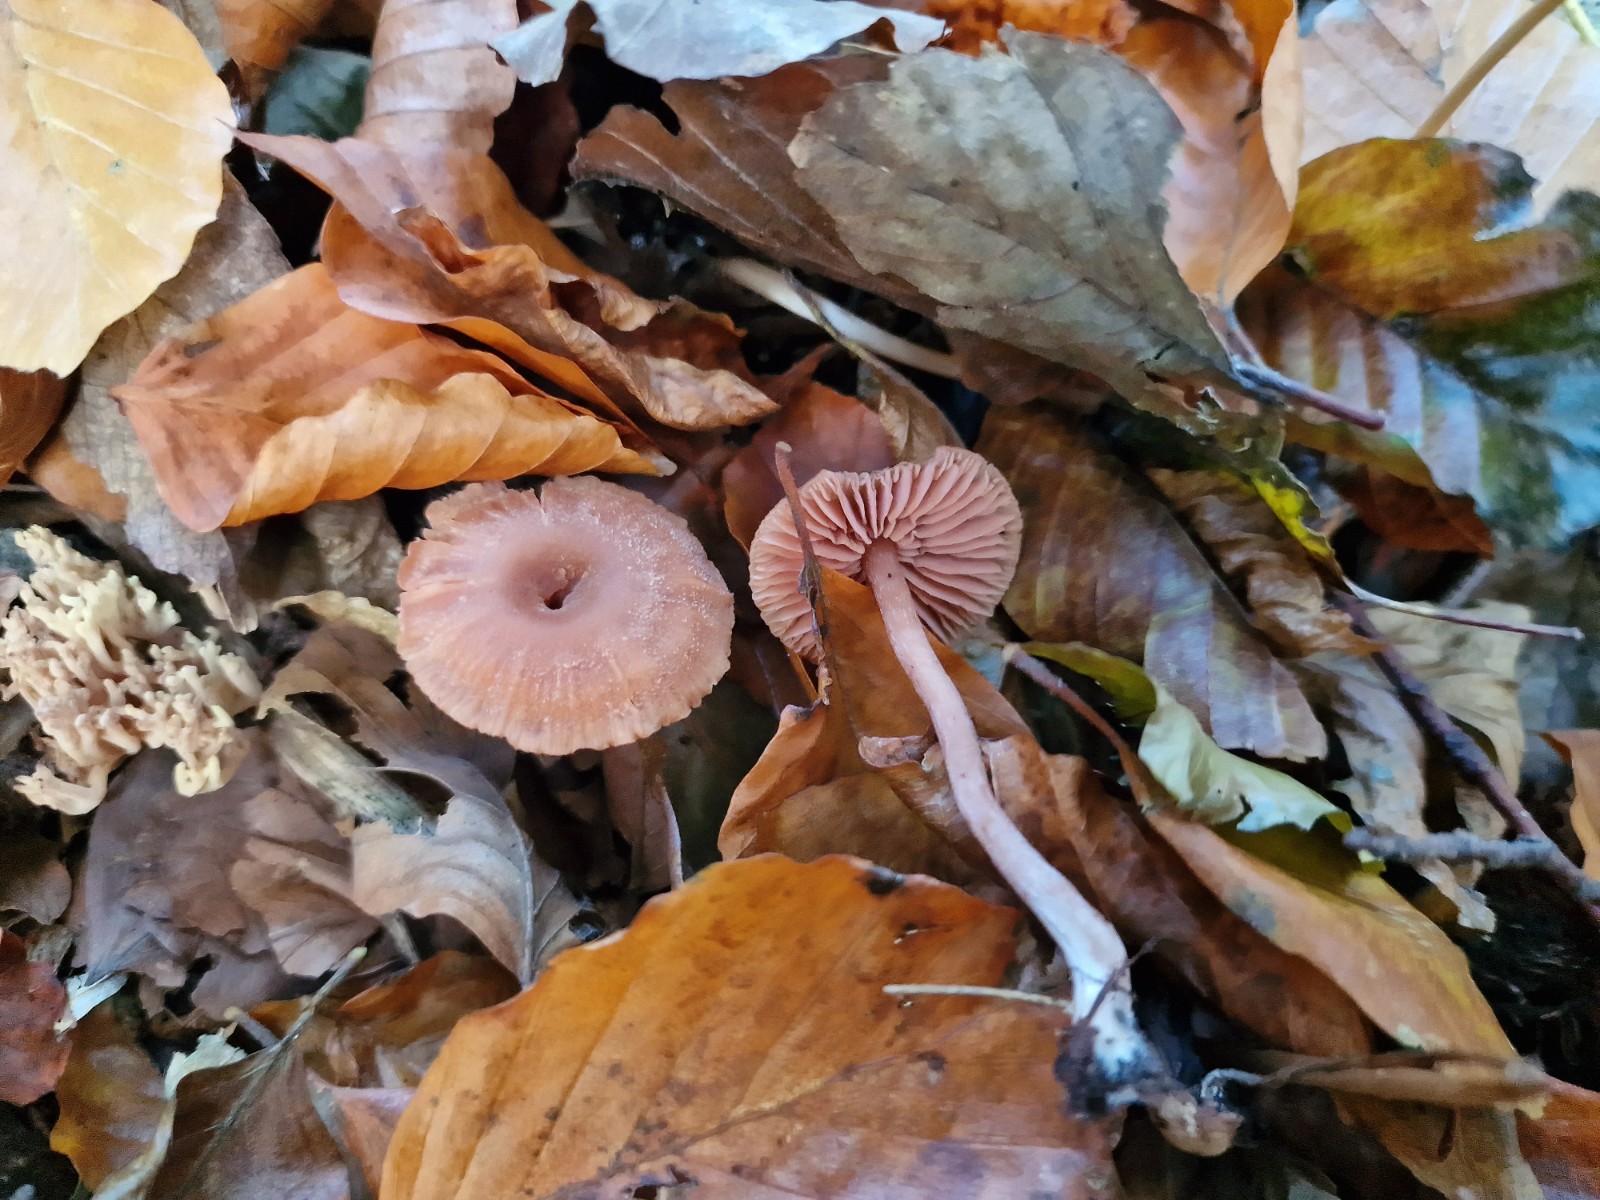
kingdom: Fungi
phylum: Basidiomycota
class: Agaricomycetes
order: Agaricales
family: Hydnangiaceae
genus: Laccaria
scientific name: Laccaria laccata
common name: rød ametysthat
